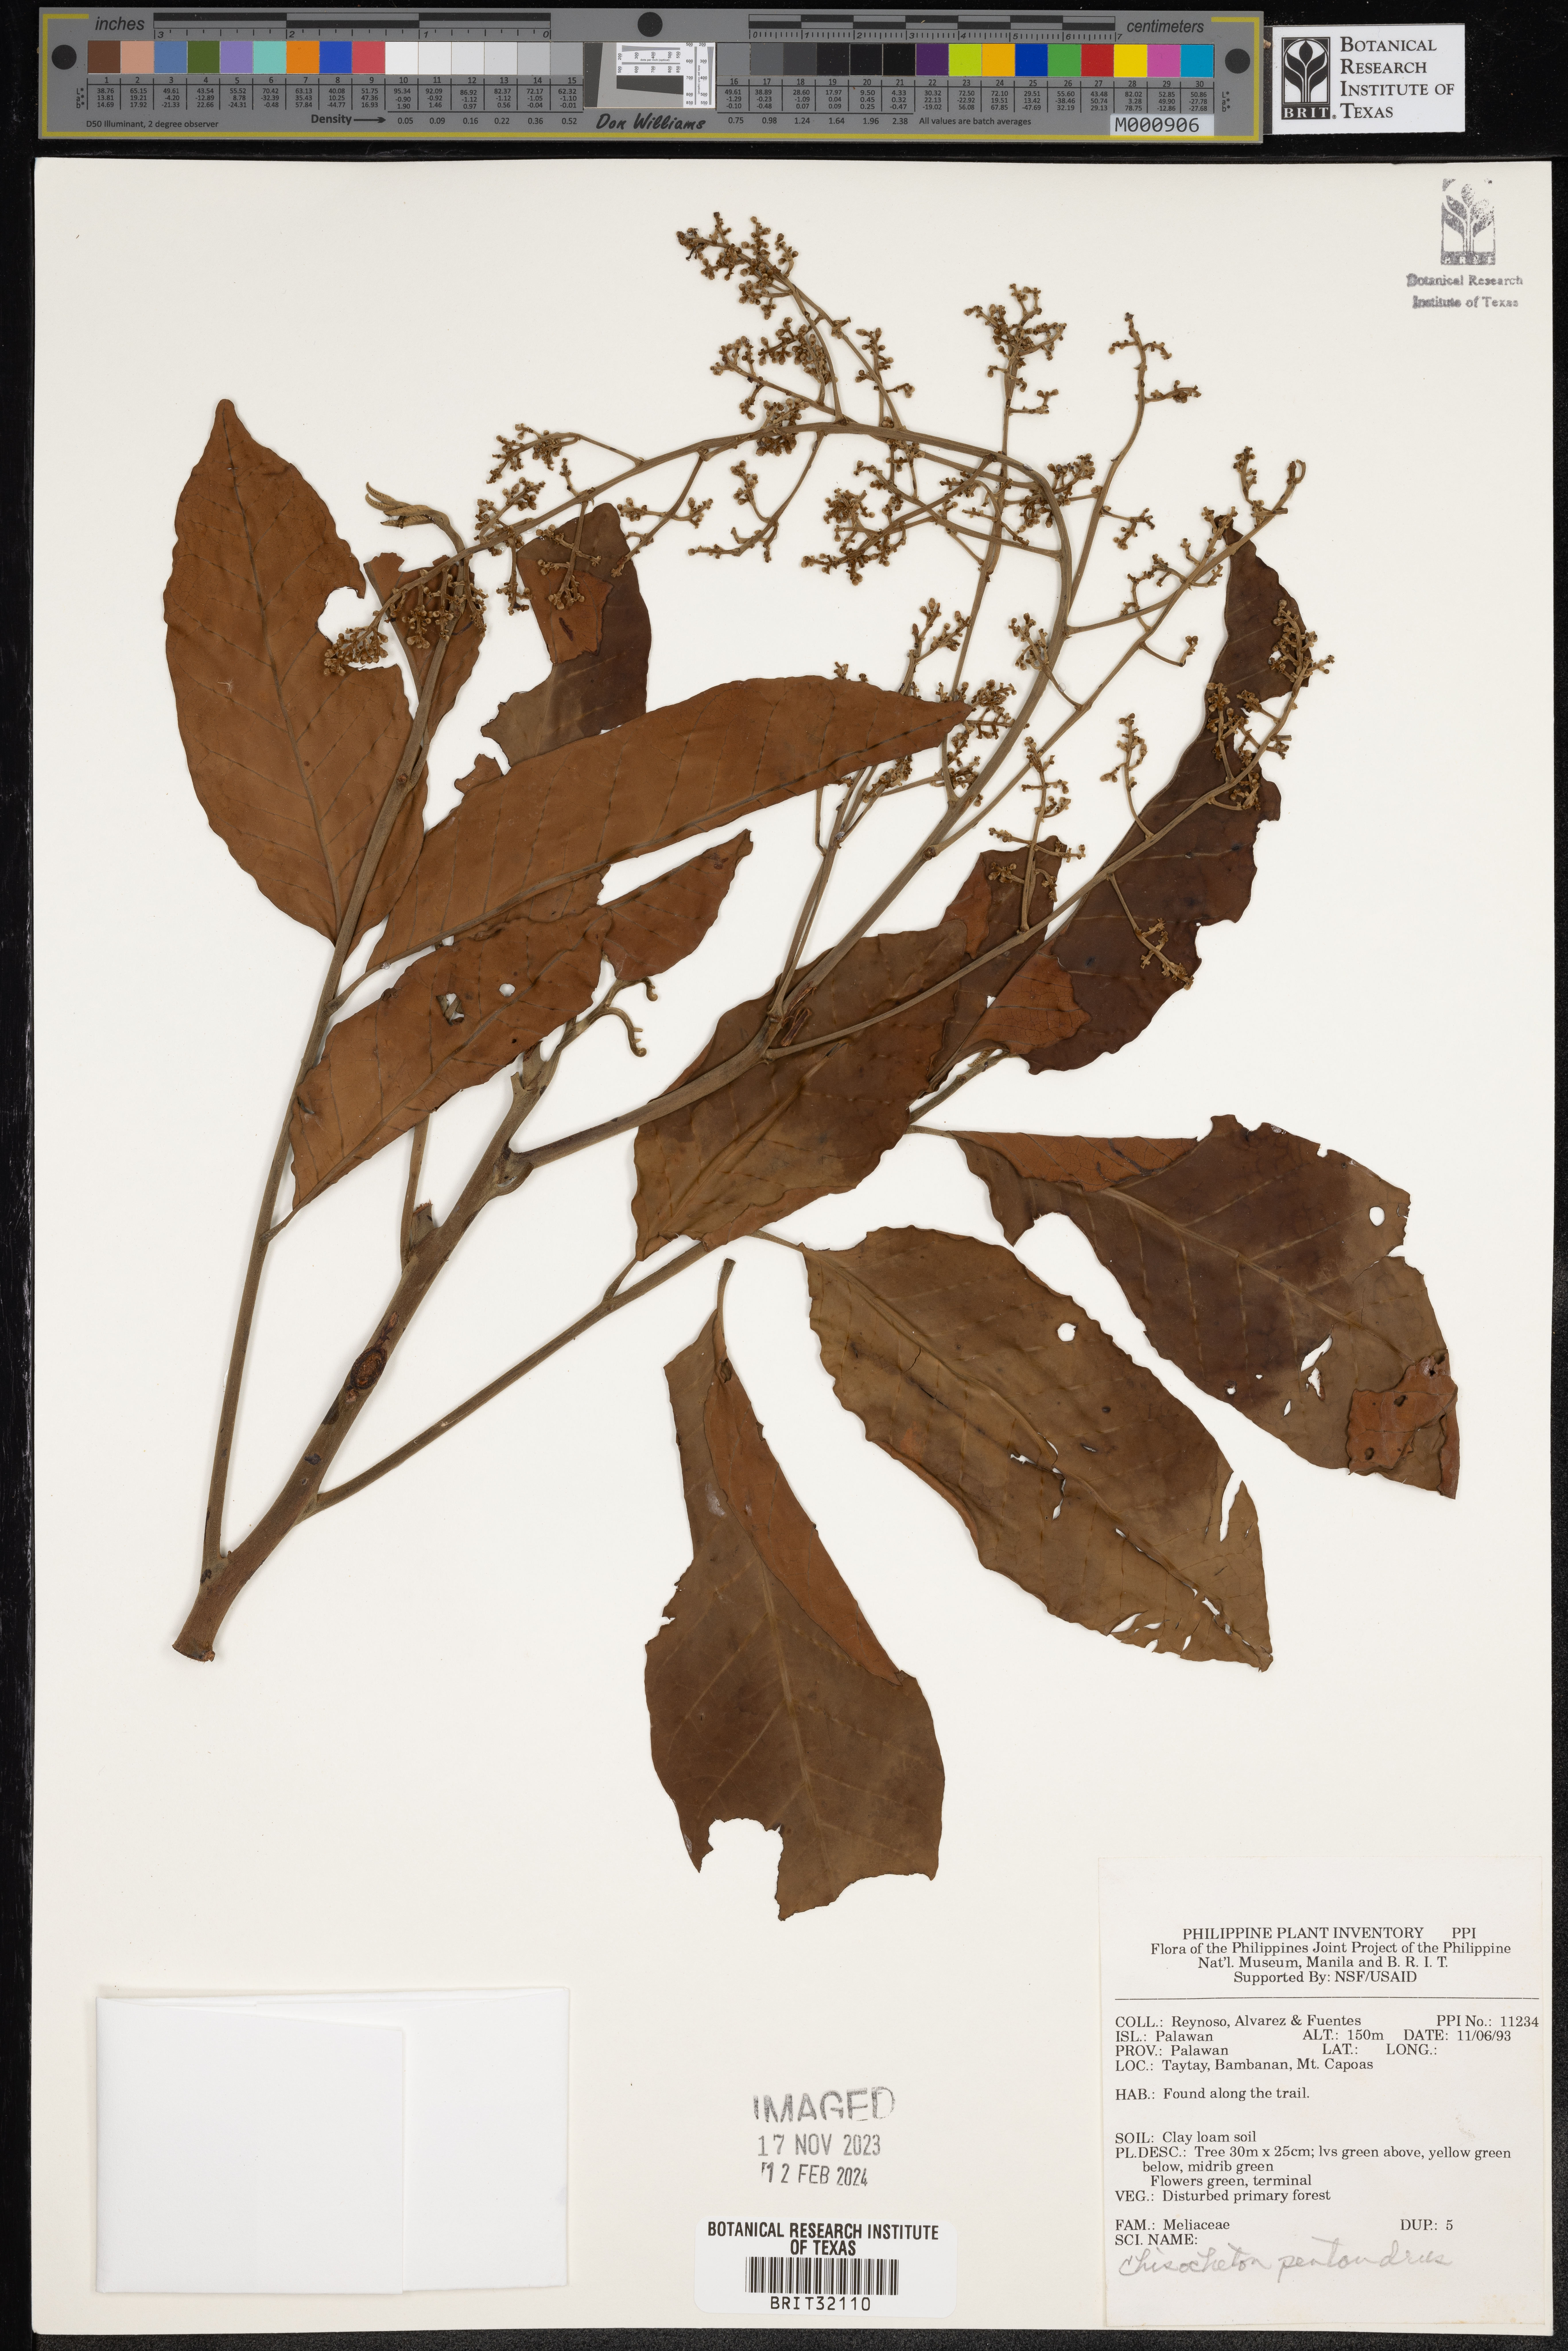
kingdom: Plantae
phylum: Tracheophyta
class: Magnoliopsida
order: Sapindales
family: Meliaceae
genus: Chisocheton
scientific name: Chisocheton pentandrus
